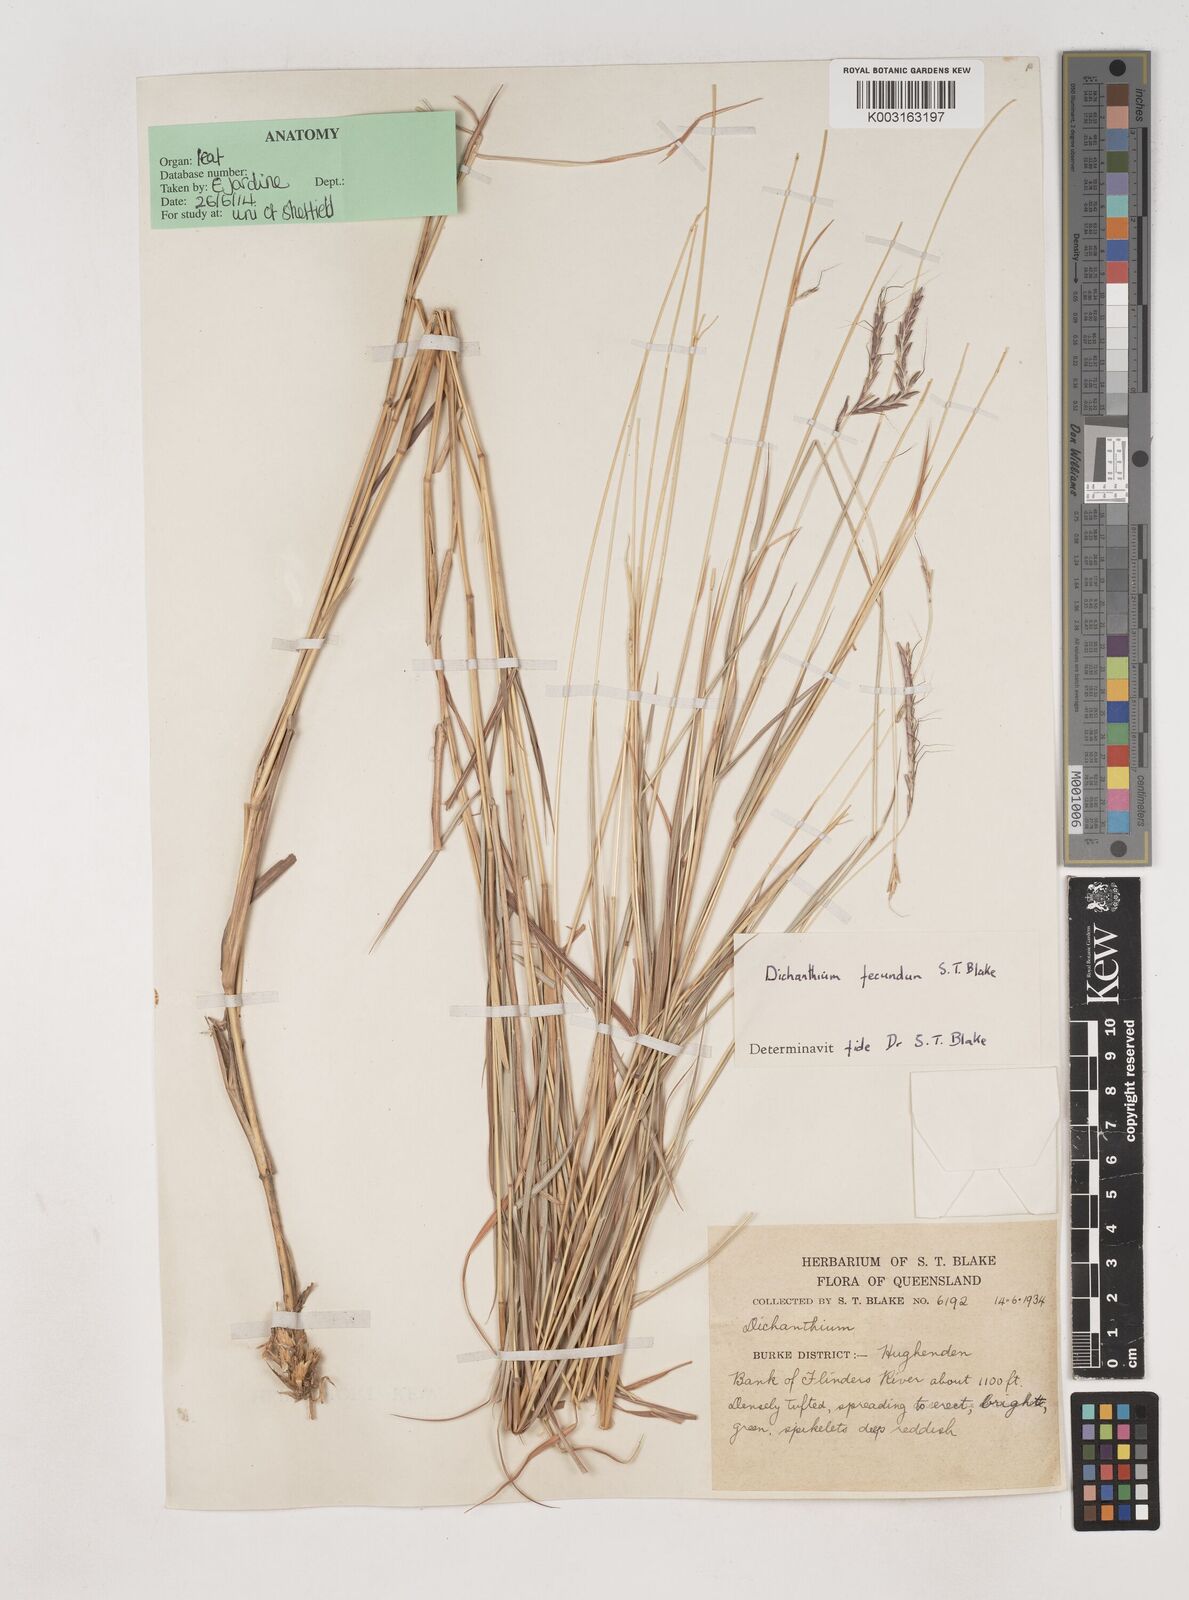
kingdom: Plantae
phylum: Tracheophyta
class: Liliopsida
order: Poales
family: Poaceae
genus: Dichanthium
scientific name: Dichanthium fecundum
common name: Bundle-bundle
